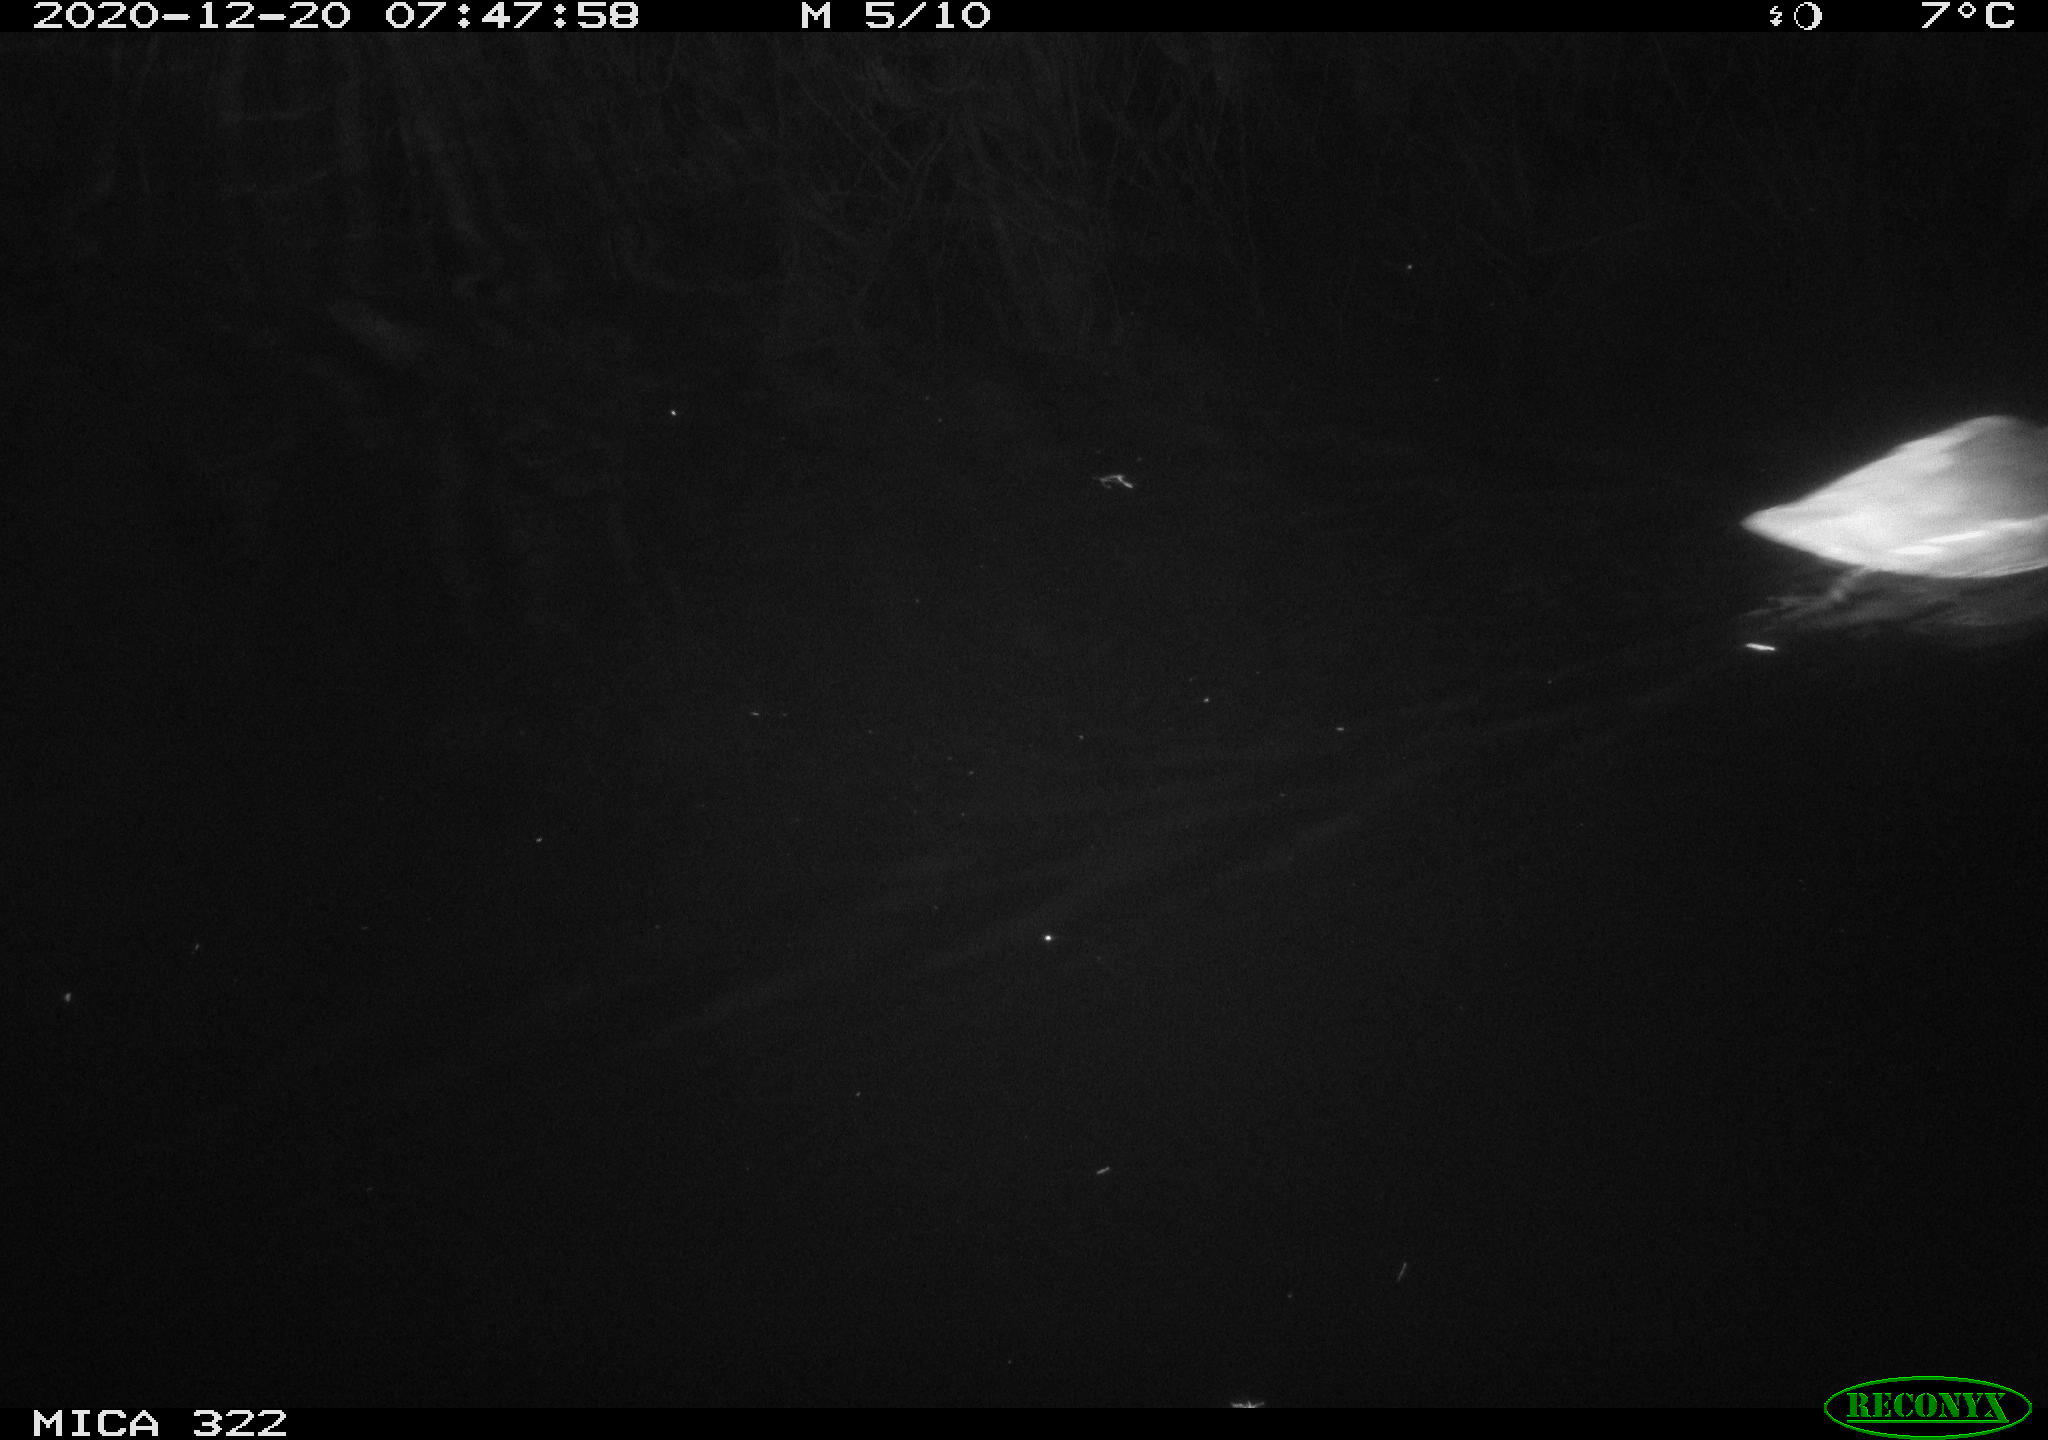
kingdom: Animalia
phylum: Chordata
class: Aves
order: Gruiformes
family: Rallidae
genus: Gallinula
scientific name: Gallinula chloropus
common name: Common moorhen
